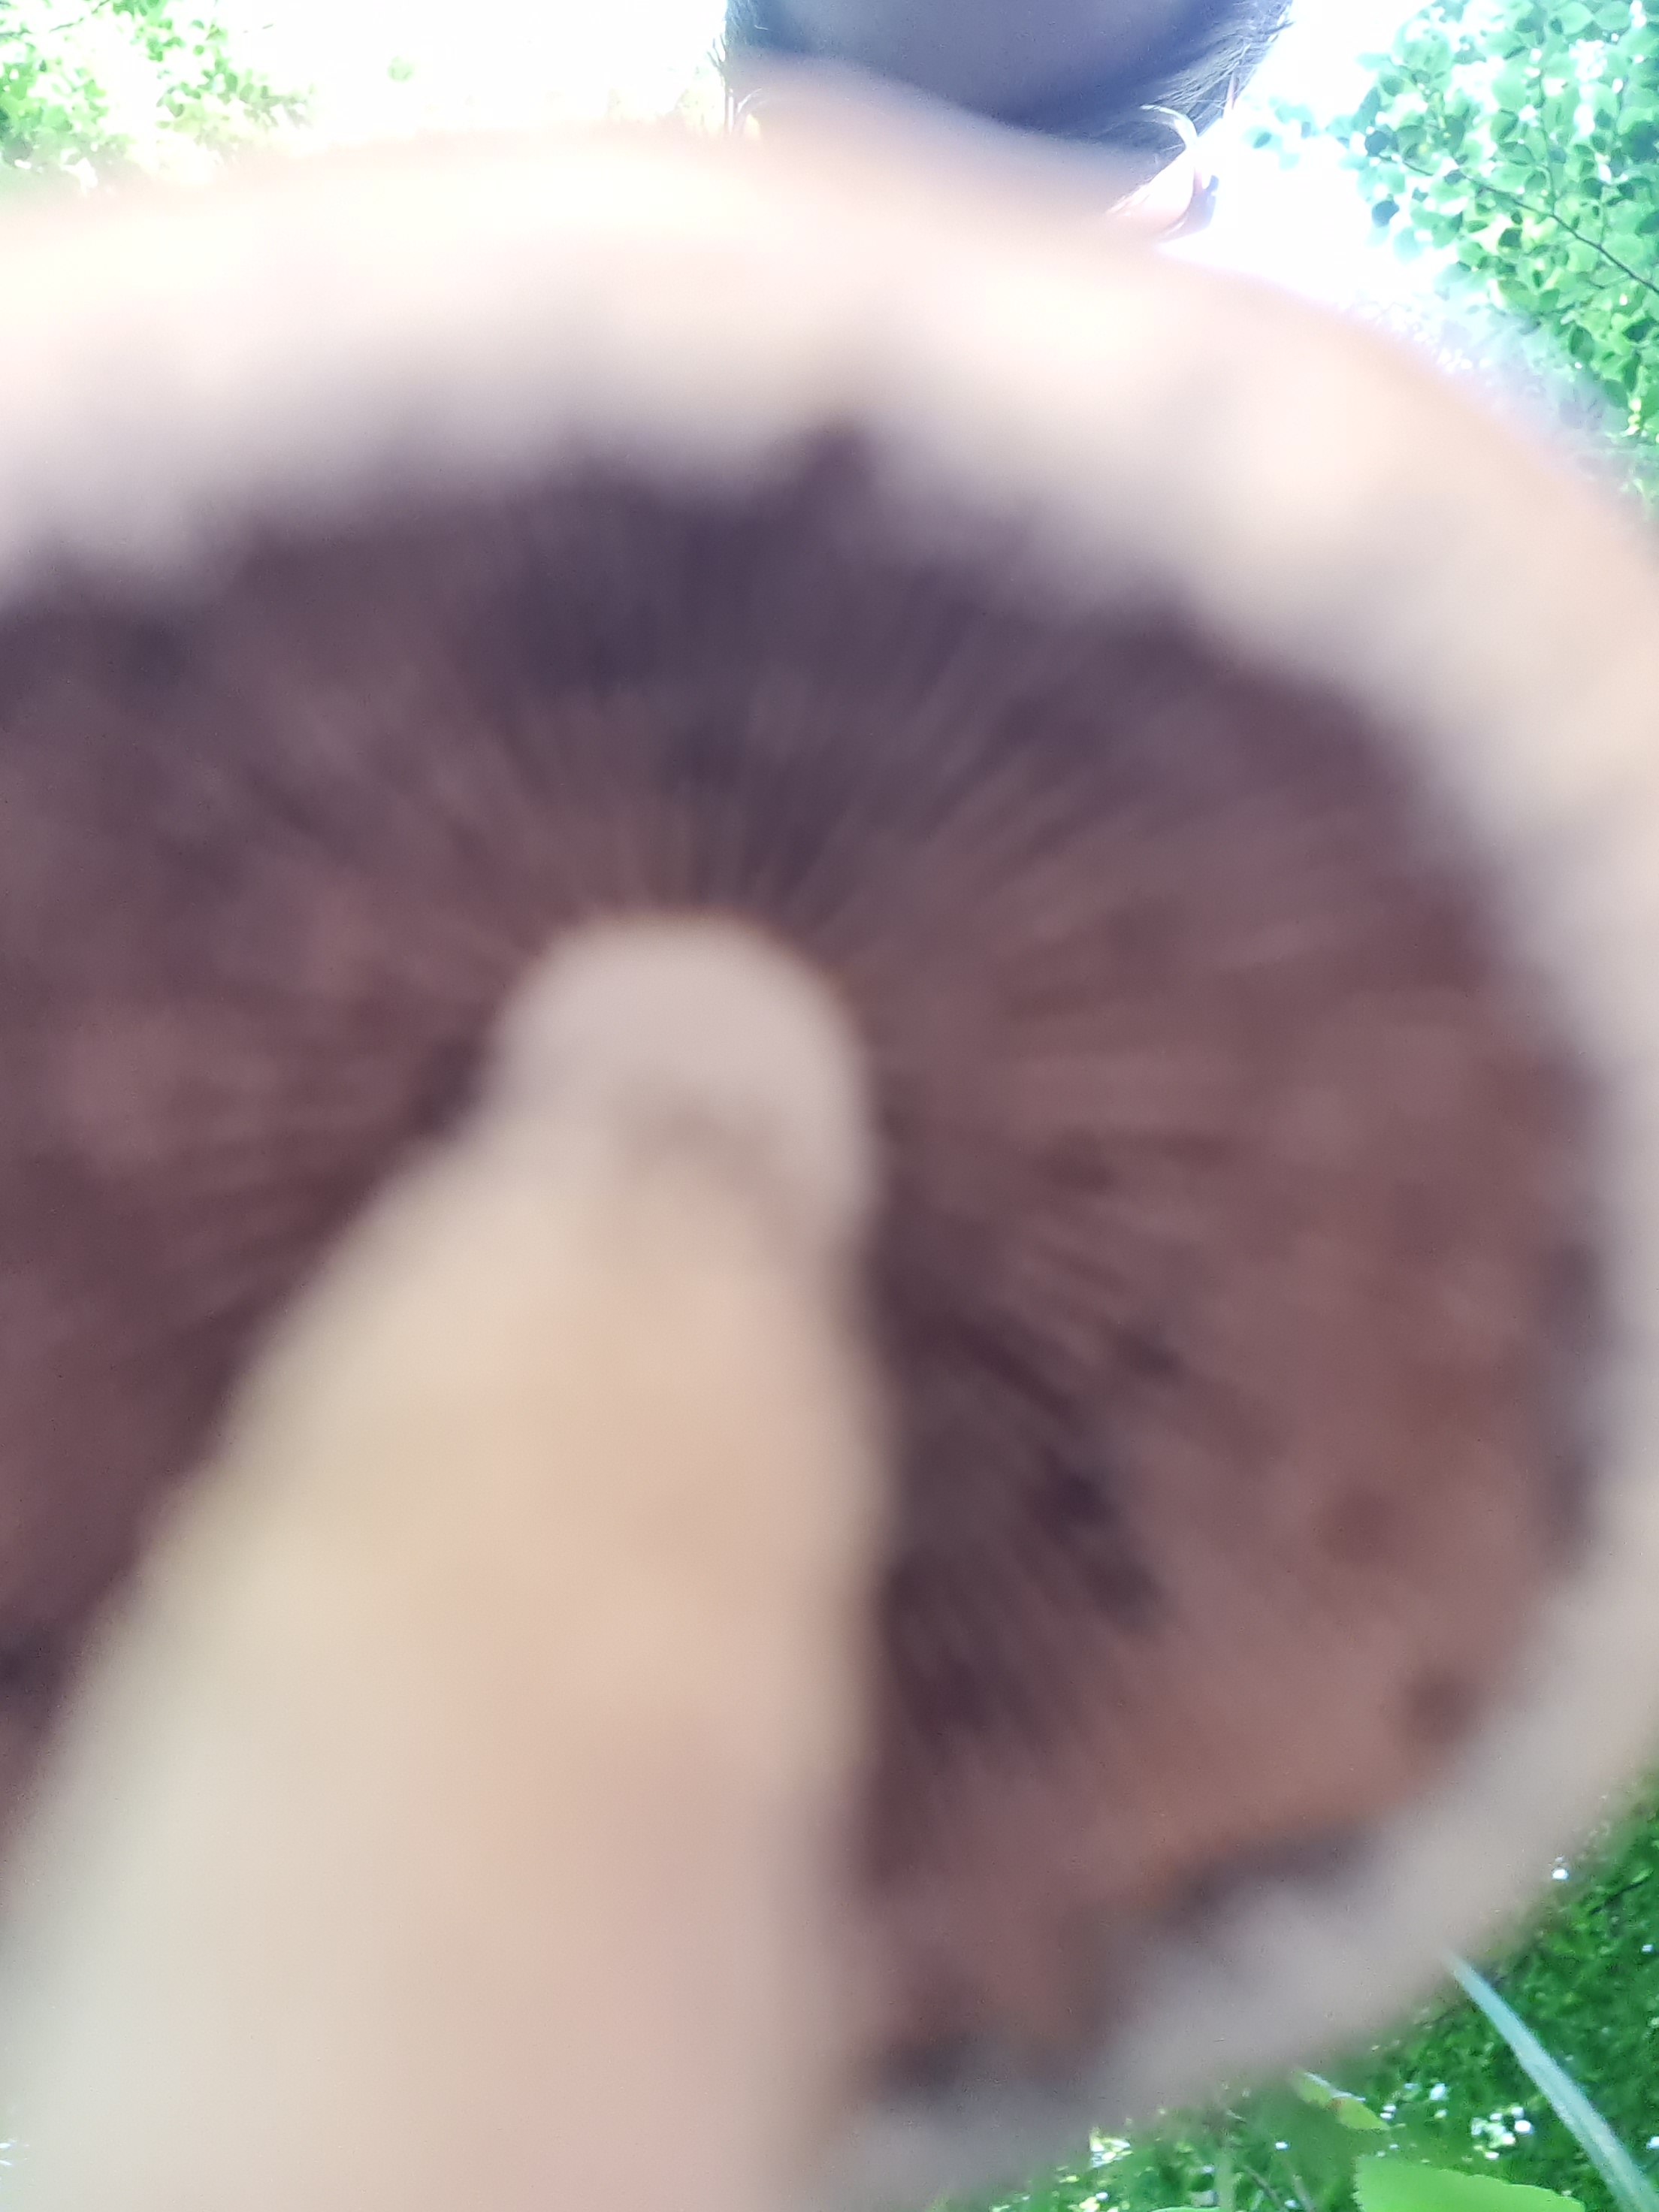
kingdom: Fungi
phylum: Basidiomycota
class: Agaricomycetes
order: Agaricales
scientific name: Agaricales
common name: champignonordenen
